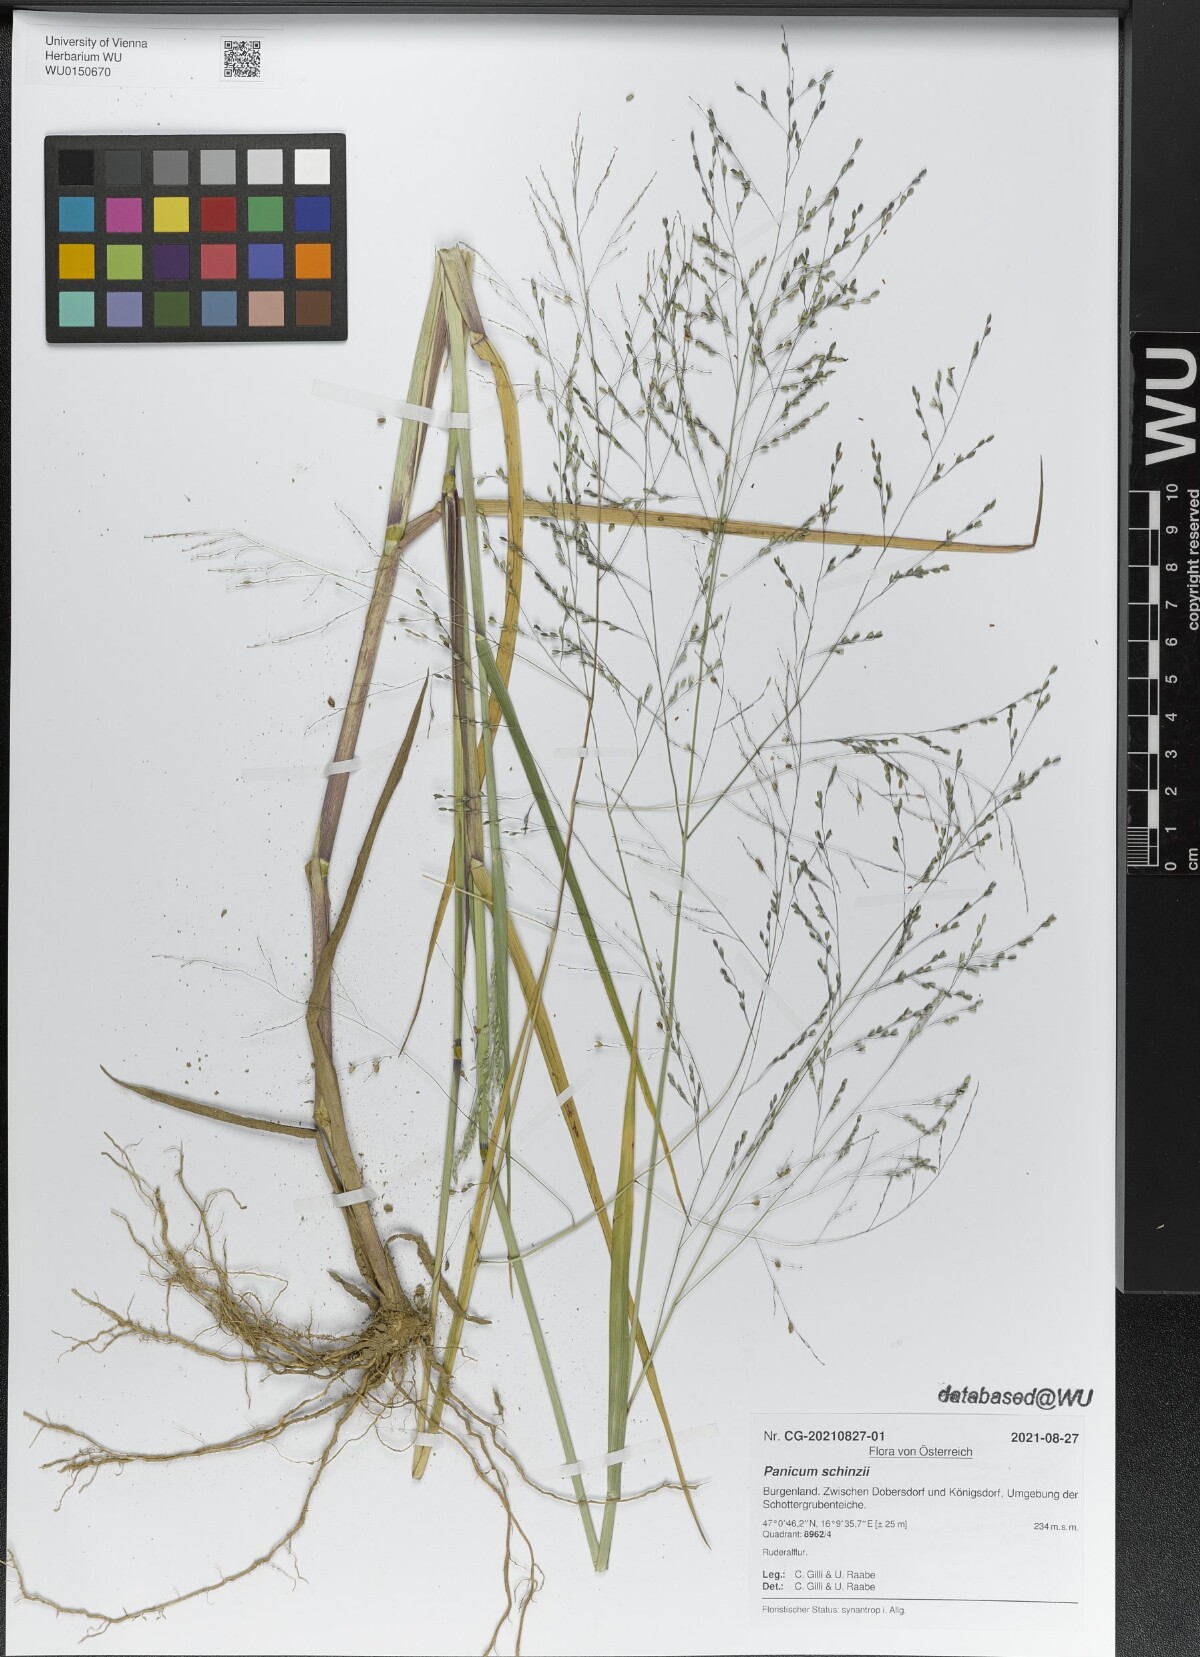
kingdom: Plantae
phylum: Tracheophyta
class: Liliopsida
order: Poales
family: Poaceae
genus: Panicum
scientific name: Panicum schinzii
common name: Sweet grass
